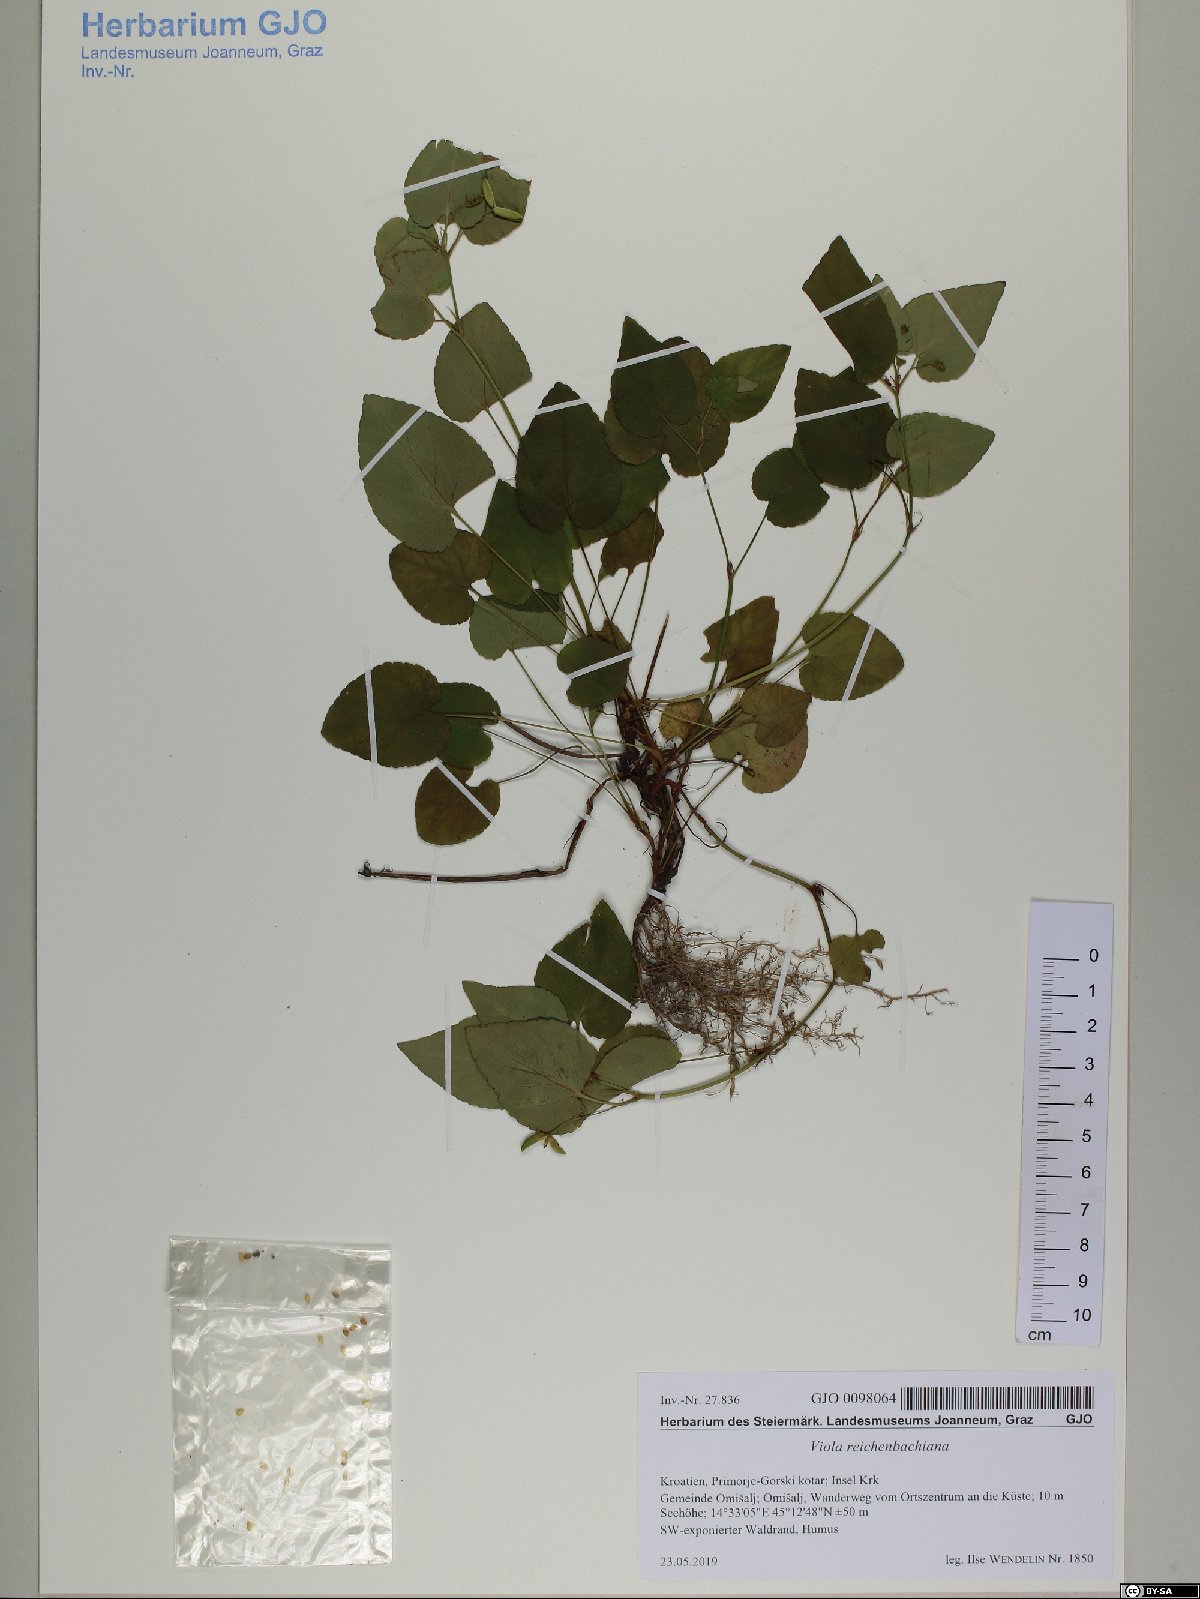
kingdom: Plantae
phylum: Tracheophyta
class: Magnoliopsida
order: Malpighiales
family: Violaceae
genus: Viola
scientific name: Viola reichenbachiana
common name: Early dog-violet
